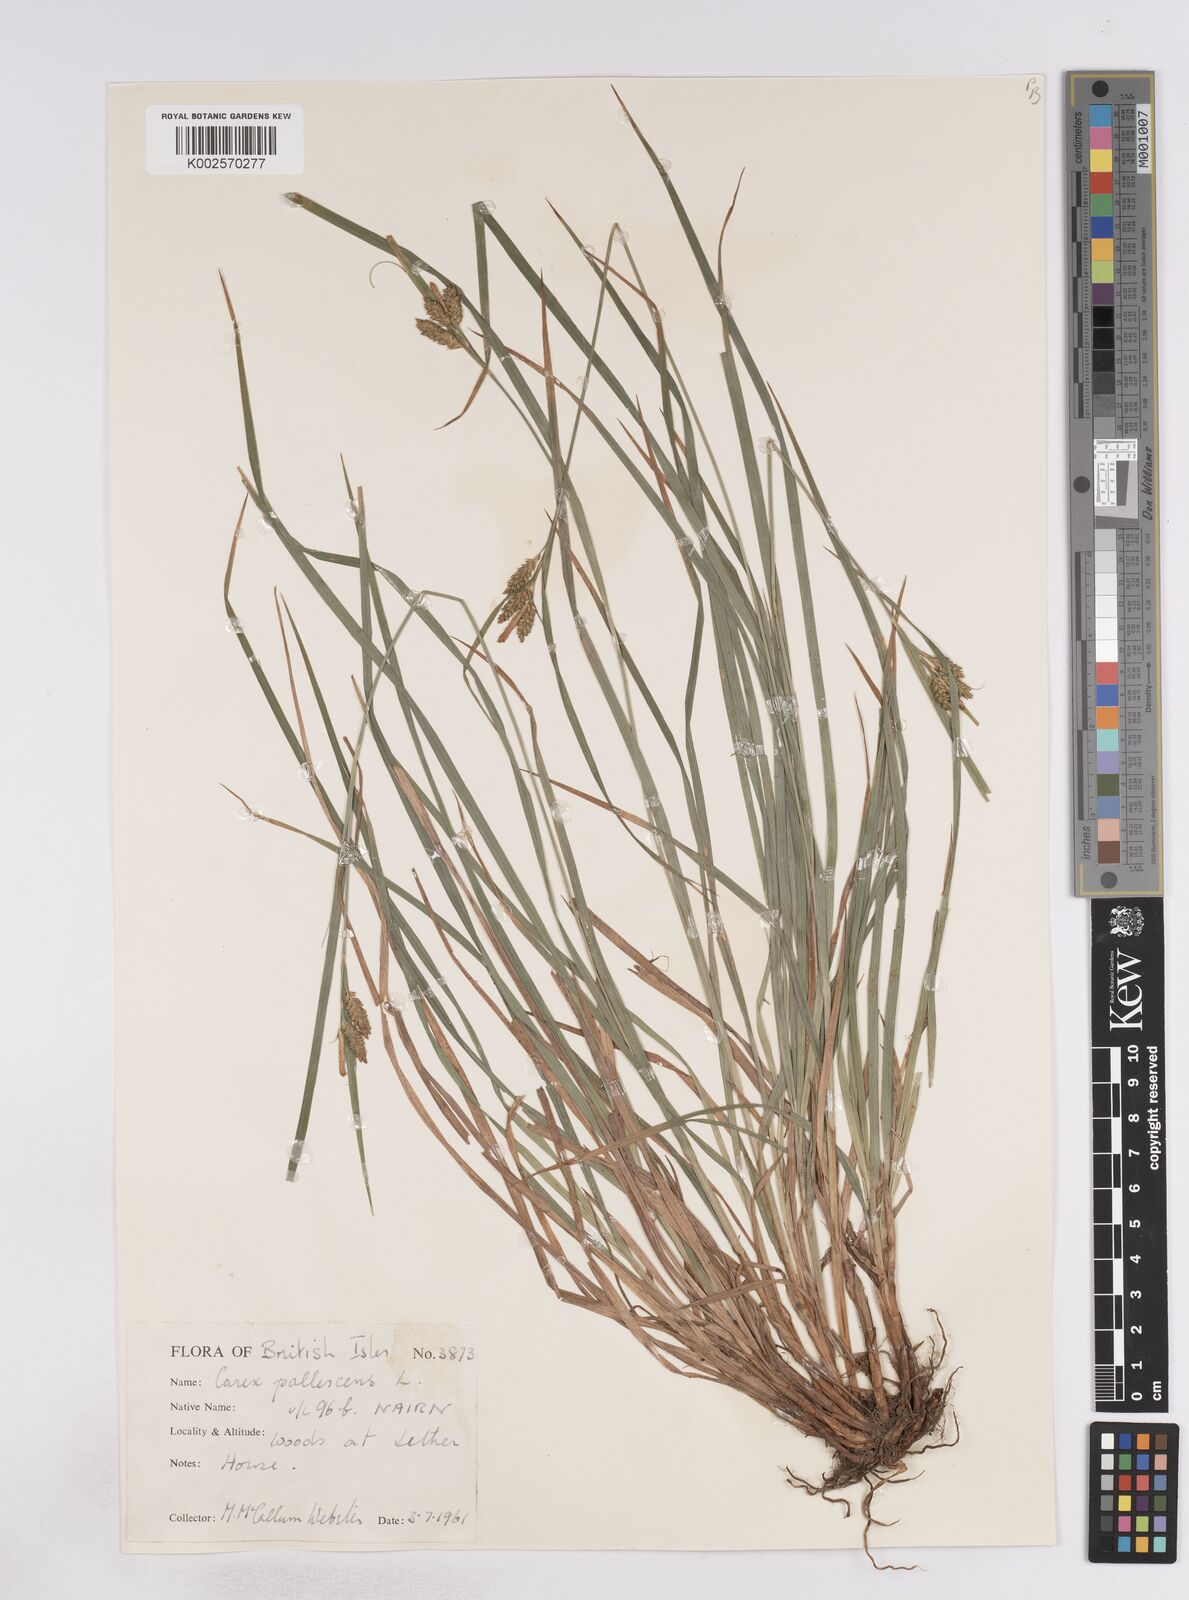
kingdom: Plantae
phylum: Tracheophyta
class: Liliopsida
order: Poales
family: Cyperaceae
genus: Carex
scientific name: Carex pallescens
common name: Pale sedge
